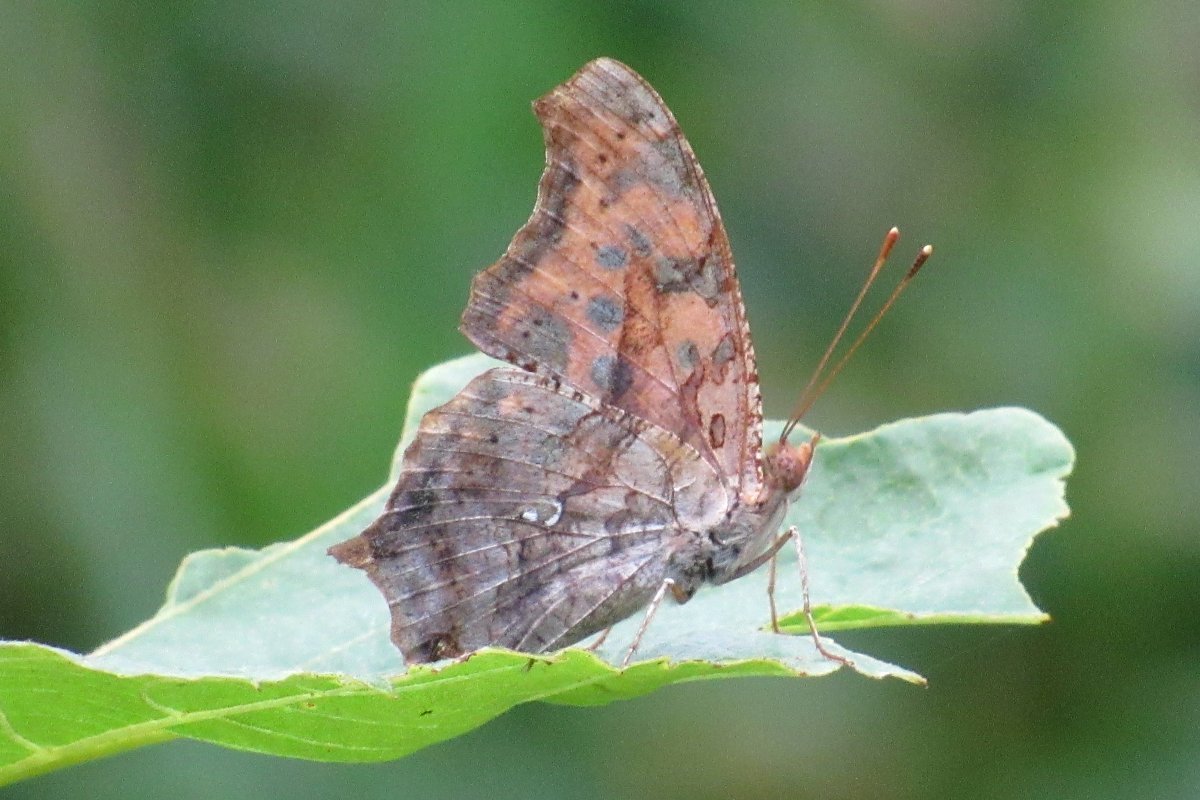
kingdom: Animalia
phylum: Arthropoda
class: Insecta
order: Lepidoptera
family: Nymphalidae
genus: Polygonia
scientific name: Polygonia interrogationis
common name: Question Mark
